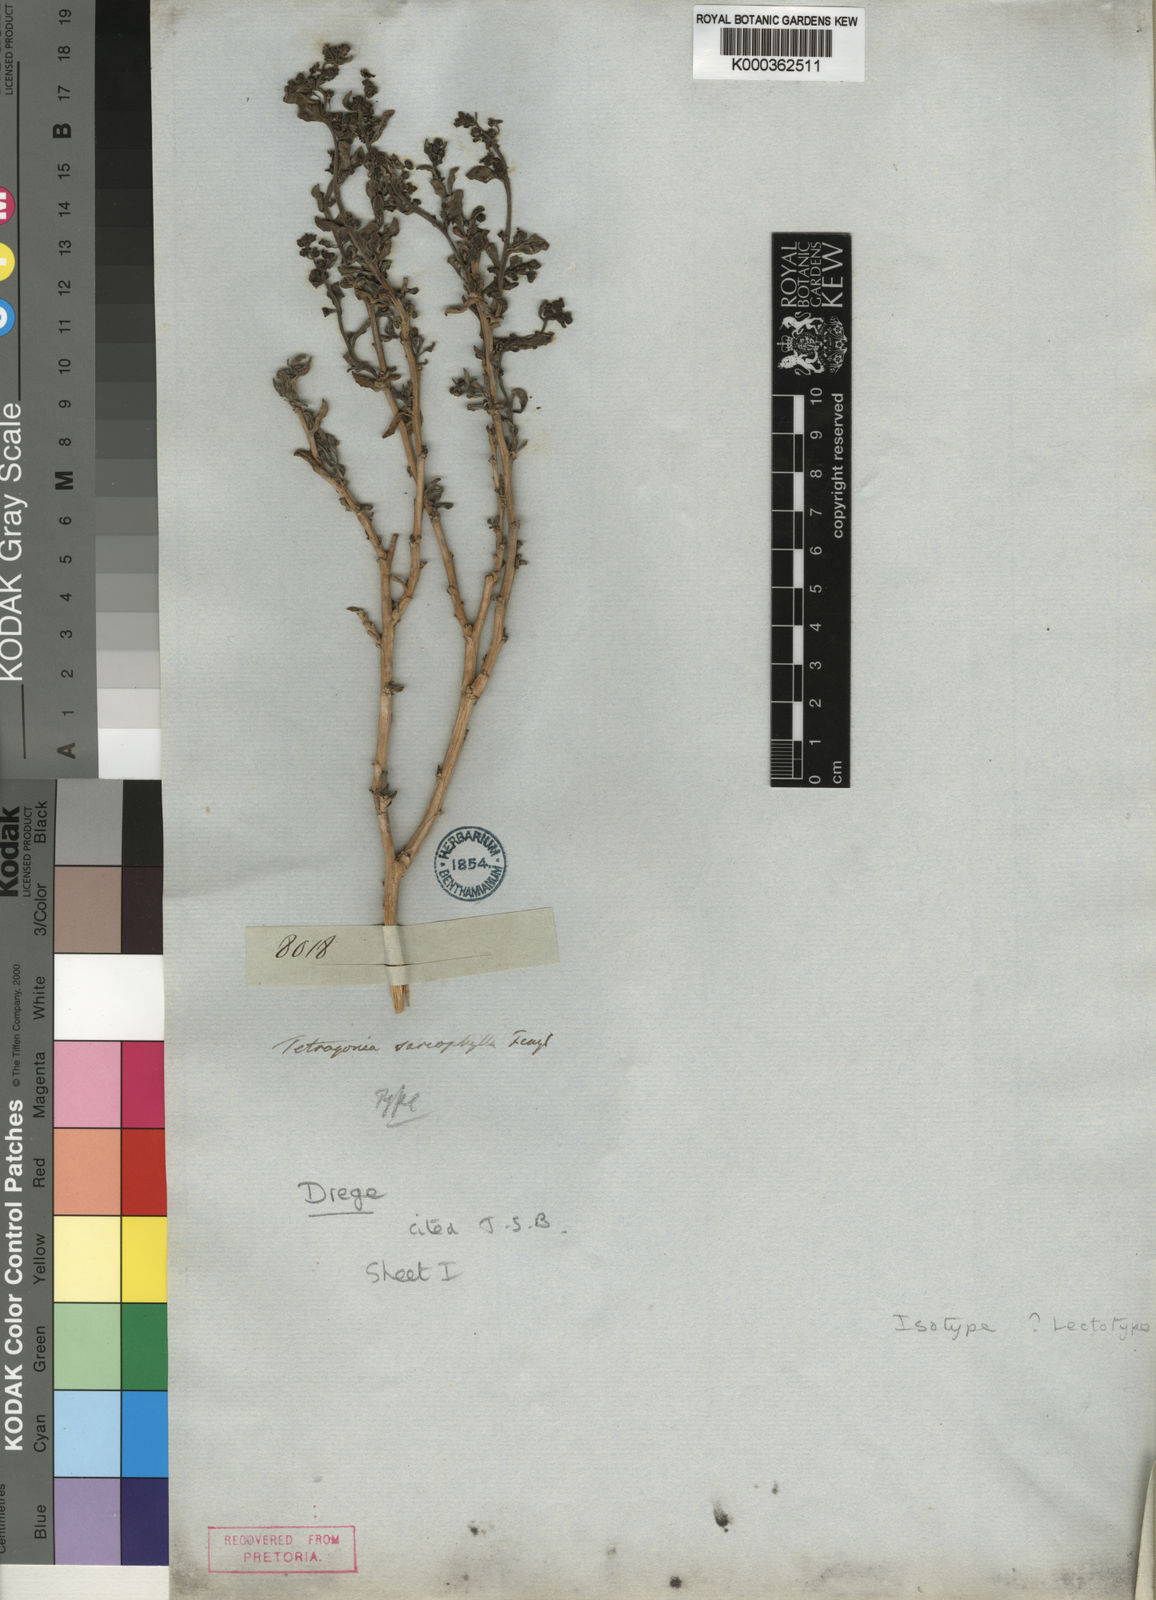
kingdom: Plantae
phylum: Tracheophyta
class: Magnoliopsida
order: Caryophyllales
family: Aizoaceae
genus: Tetragonia
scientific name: Tetragonia sarcophylla
